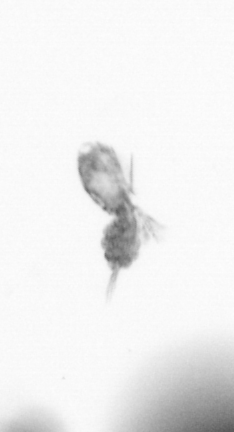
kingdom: Animalia
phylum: Arthropoda
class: Copepoda
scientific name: Copepoda
